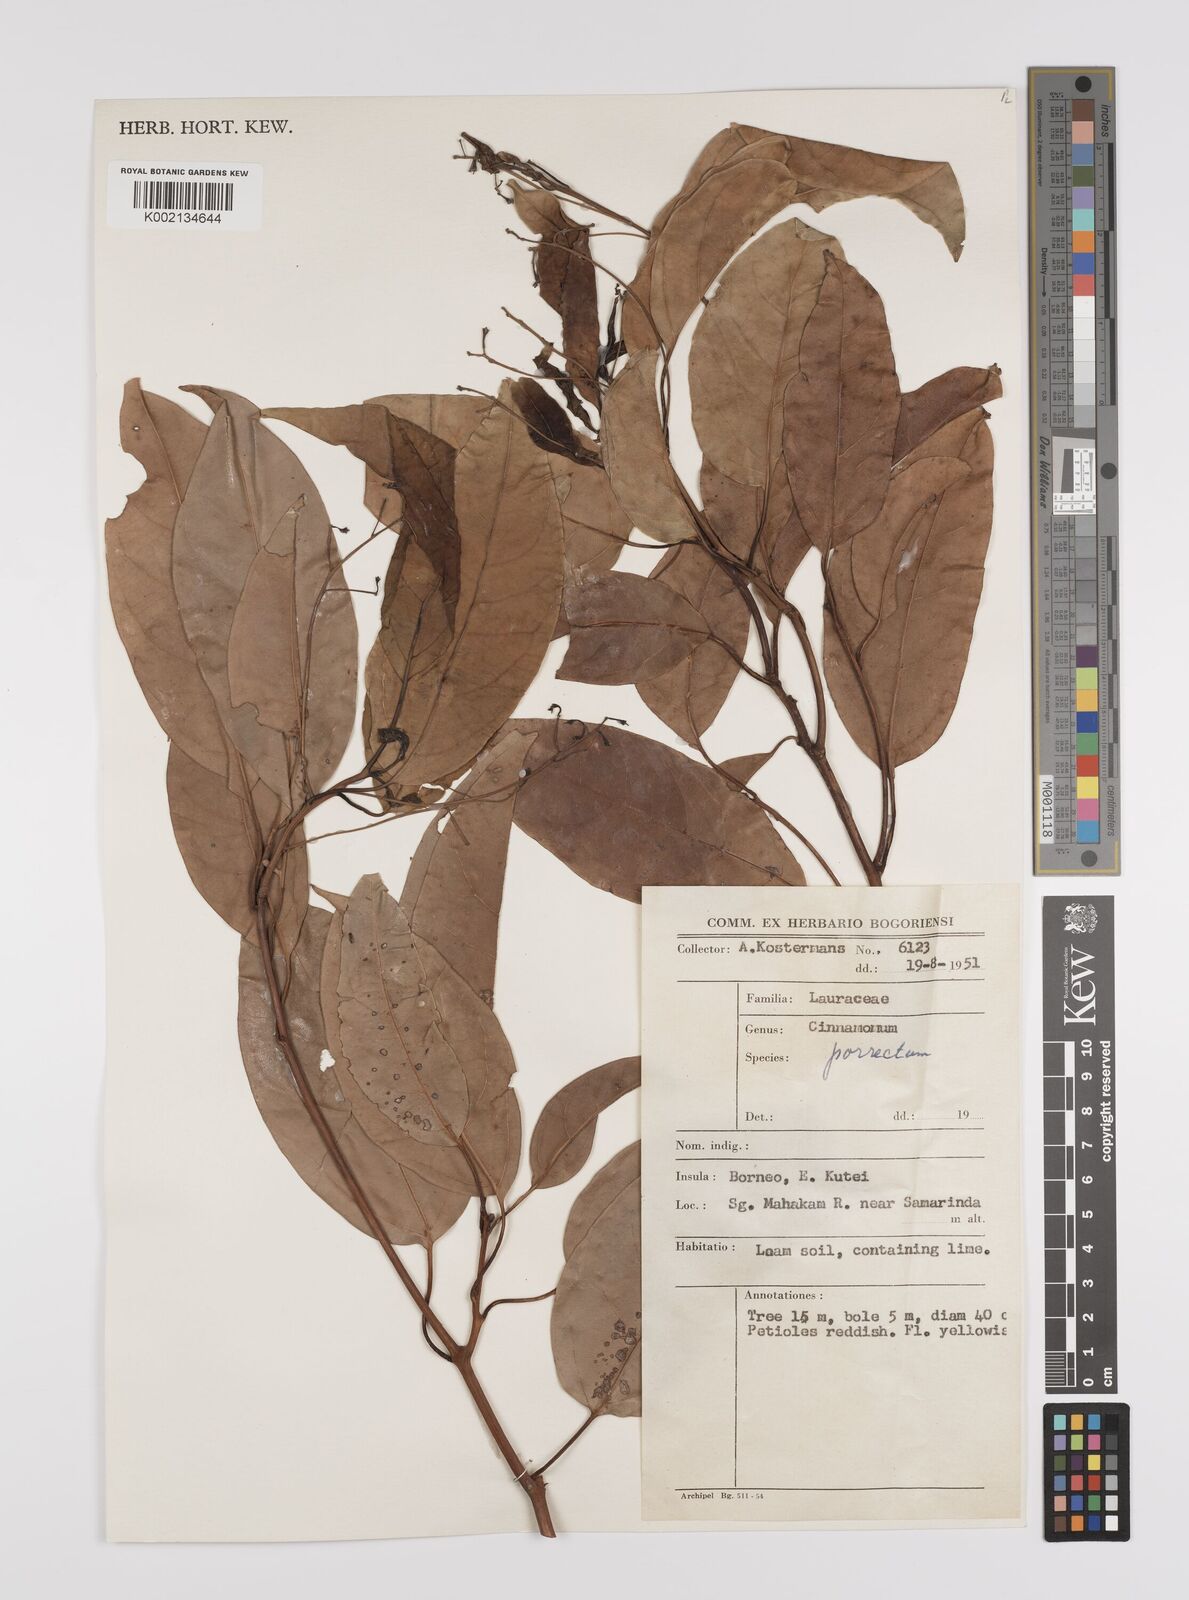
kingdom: Plantae
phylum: Tracheophyta
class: Magnoliopsida
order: Laurales
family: Lauraceae
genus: Cinnamomum
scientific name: Cinnamomum parthenoxylon
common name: Martaban camphor wood
